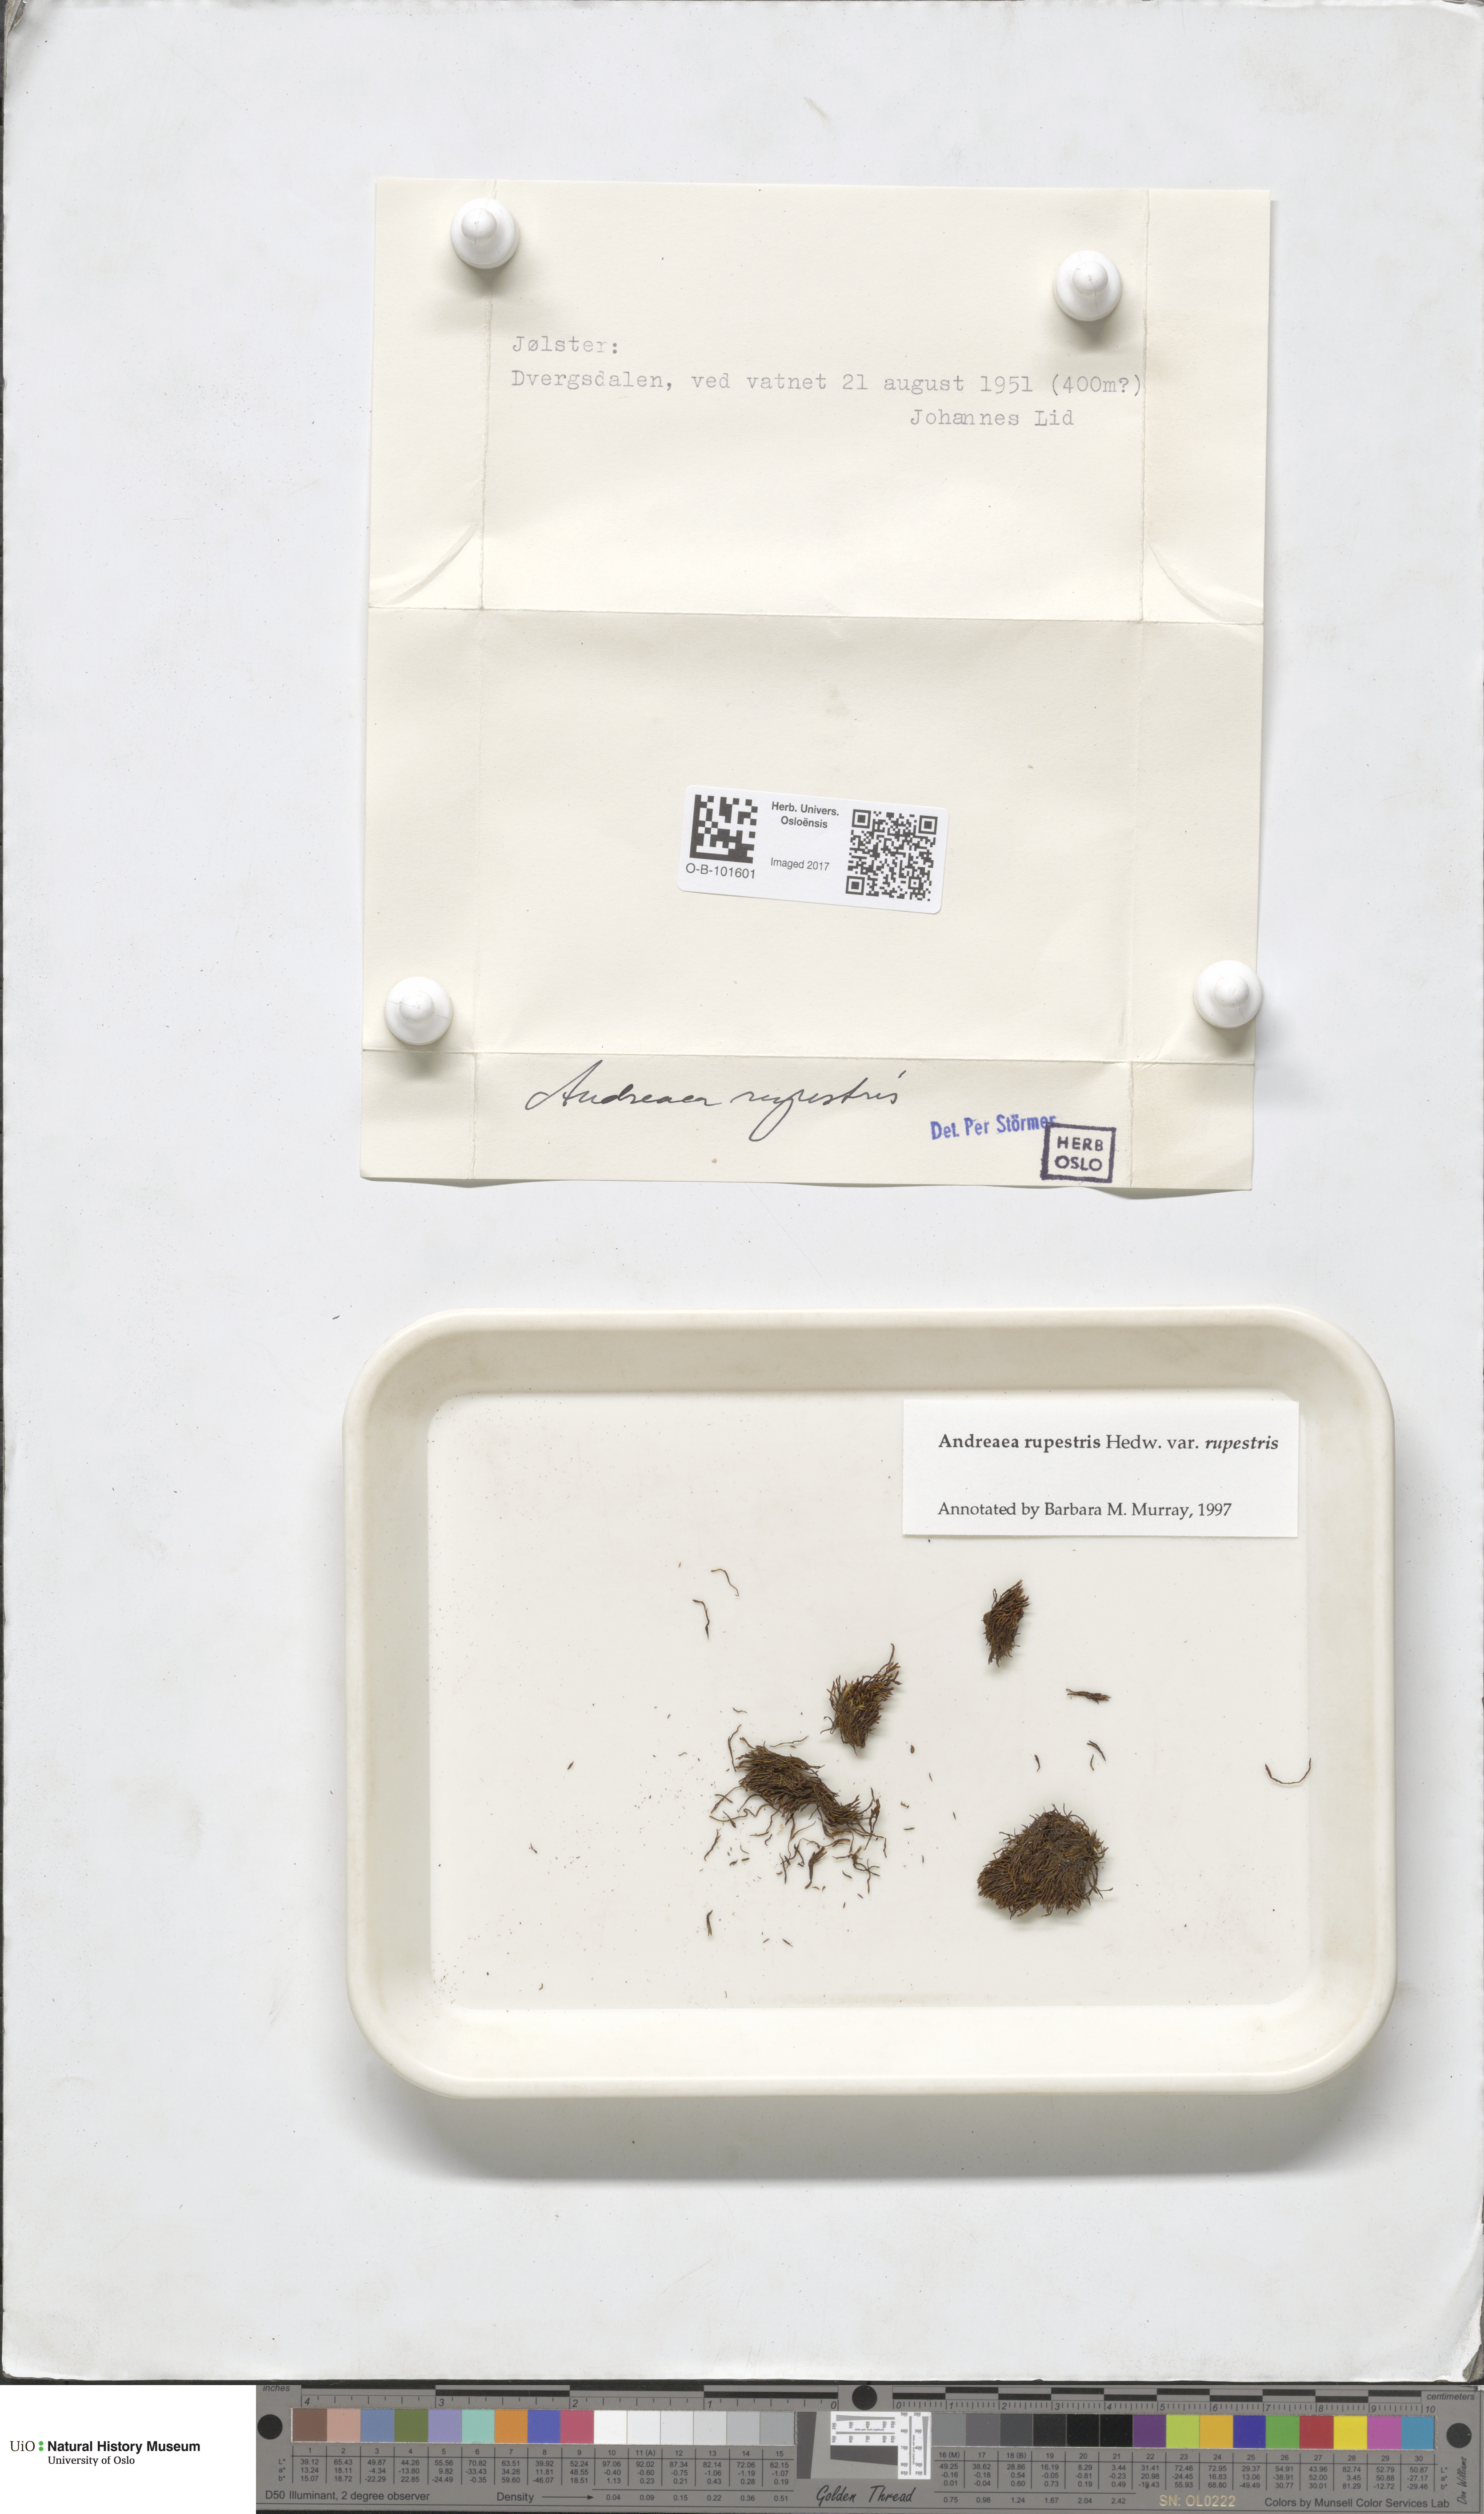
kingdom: Plantae
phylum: Bryophyta
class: Andreaeopsida
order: Andreaeales
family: Andreaeaceae
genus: Andreaea
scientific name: Andreaea rupestris
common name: Black rock moss
